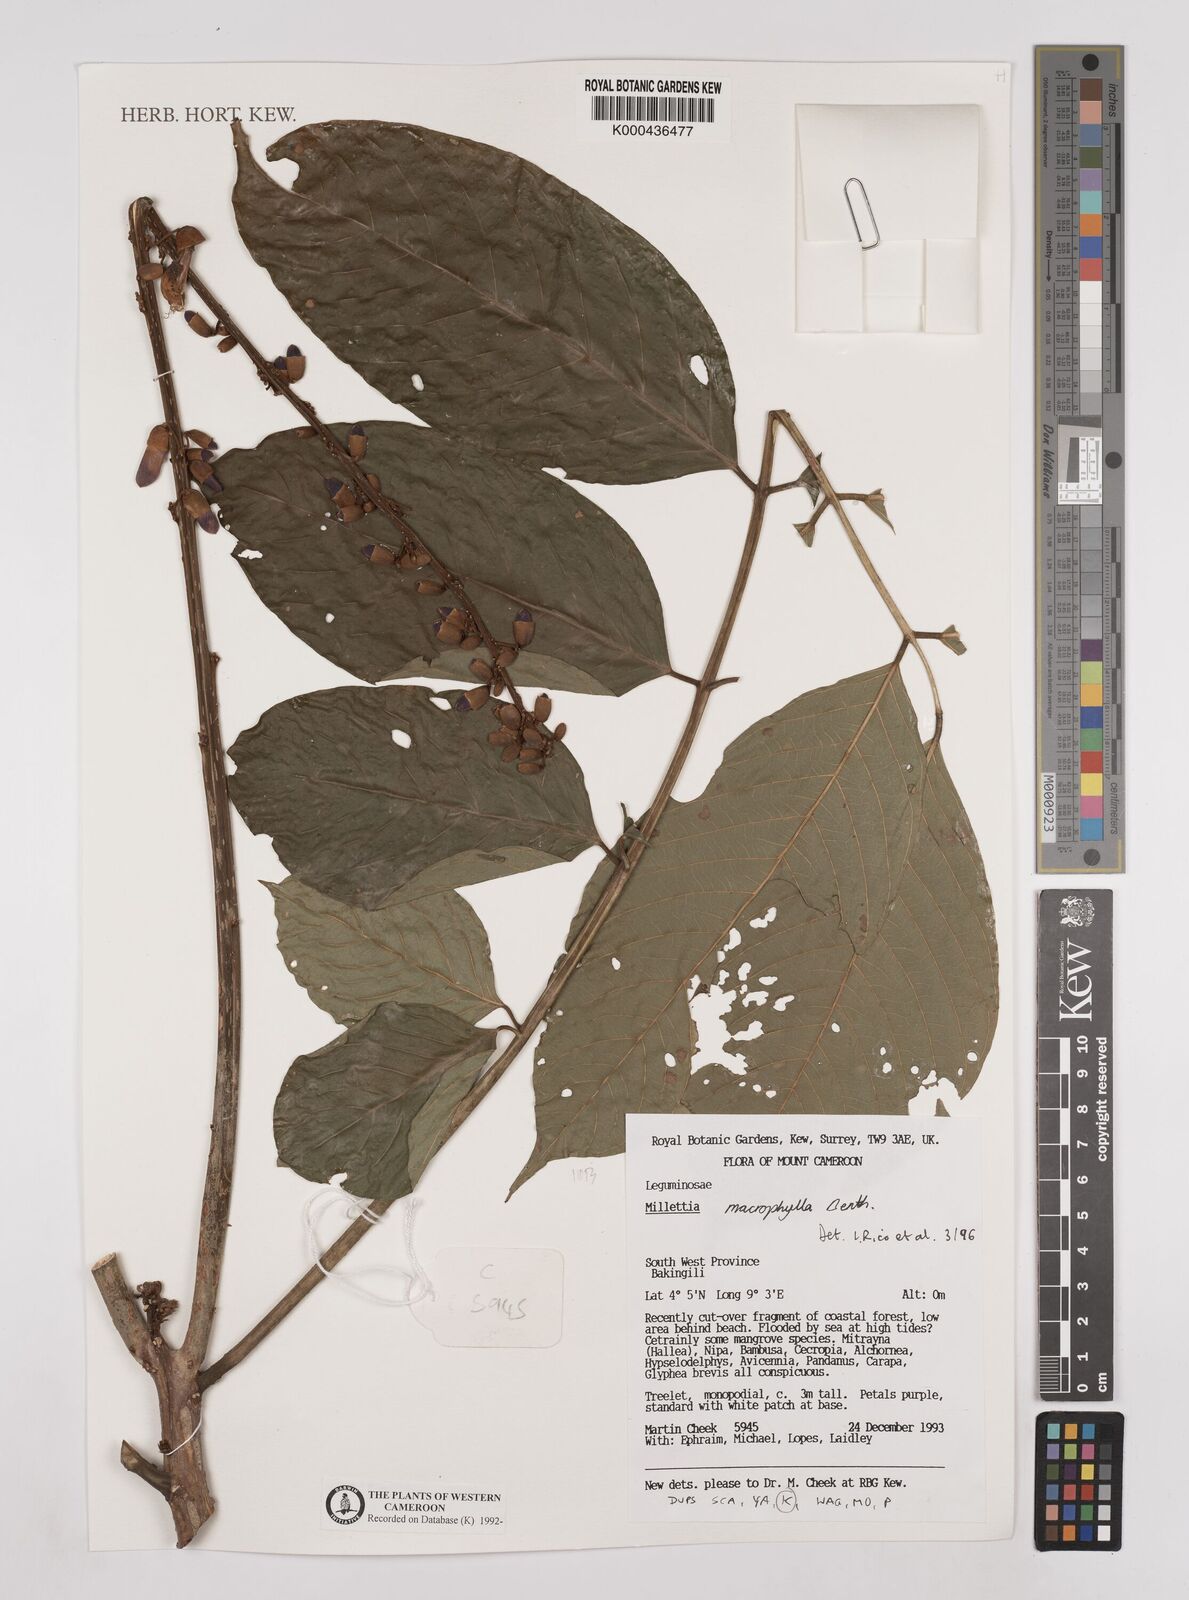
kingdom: Plantae
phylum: Tracheophyta
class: Magnoliopsida
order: Fabales
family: Fabaceae
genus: Millettia
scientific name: Millettia macrophylla
